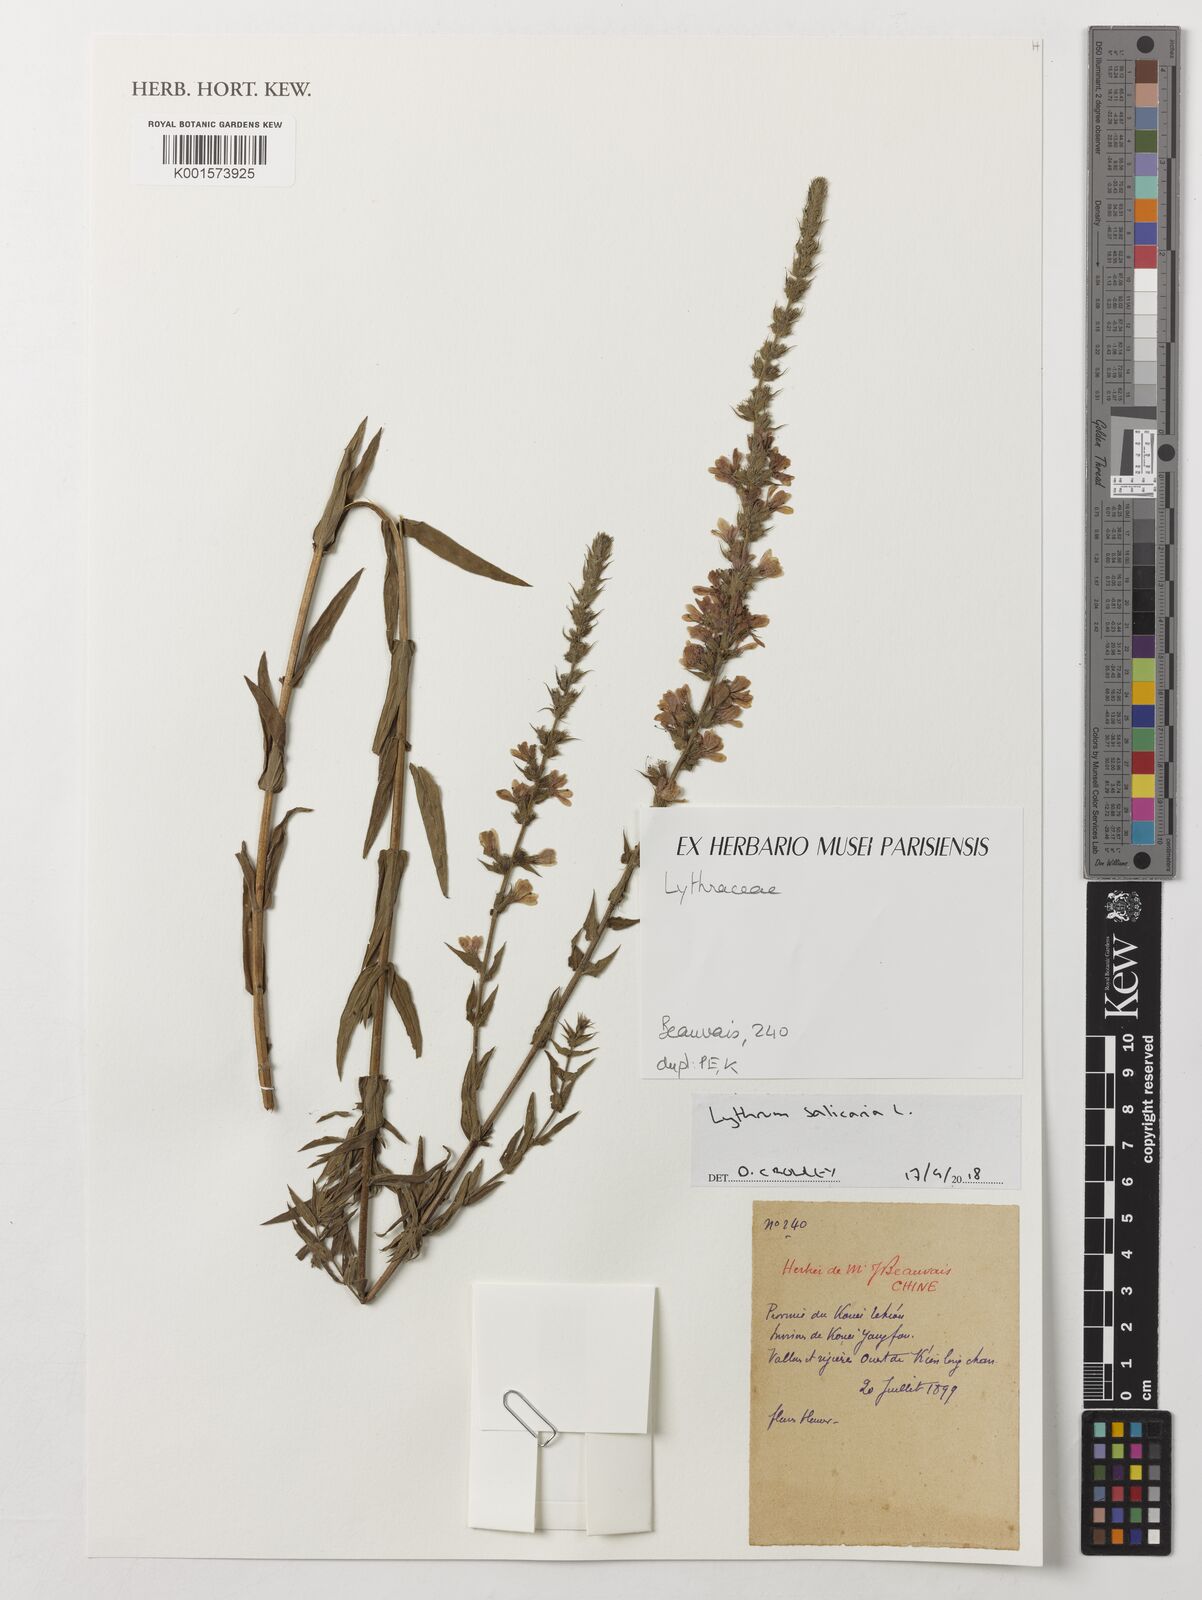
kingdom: Plantae
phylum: Tracheophyta
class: Magnoliopsida
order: Myrtales
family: Lythraceae
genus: Lythrum
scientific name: Lythrum salicaria
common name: Purple loosestrife
